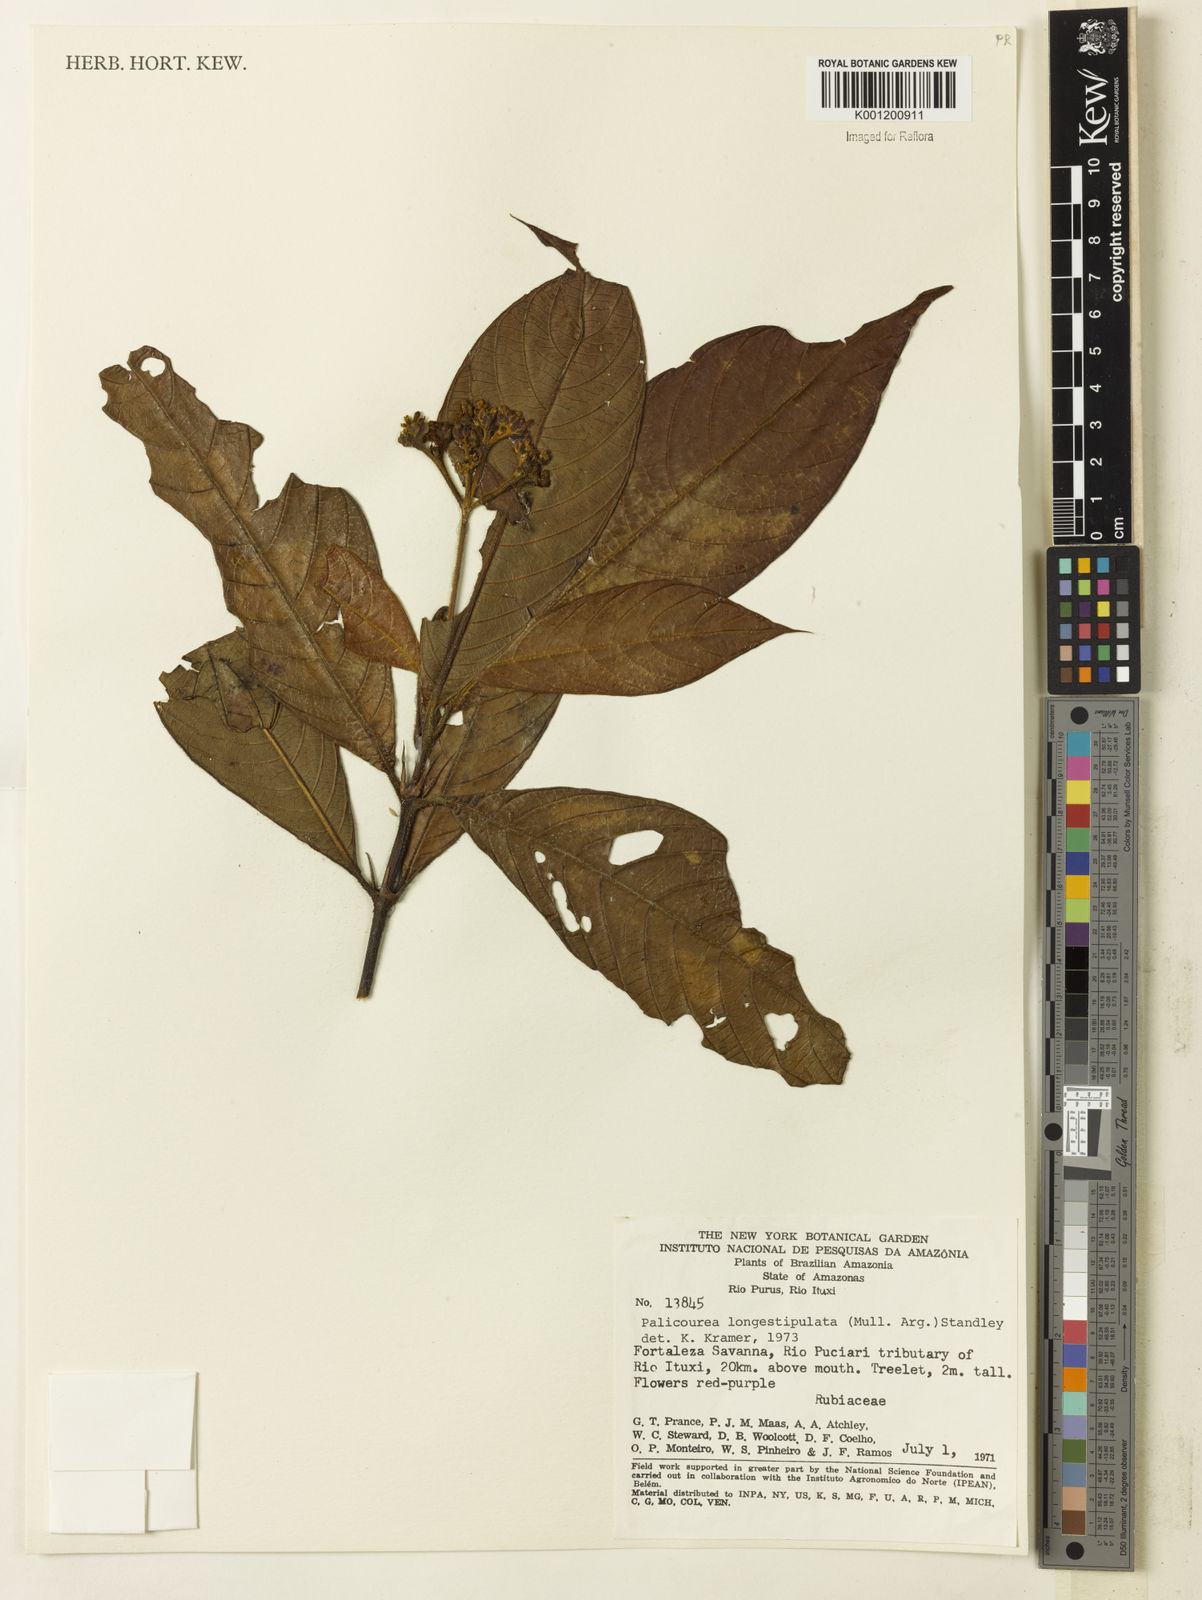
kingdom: Plantae
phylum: Tracheophyta
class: Magnoliopsida
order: Gentianales
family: Rubiaceae
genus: Palicourea
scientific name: Palicourea longistipulata
